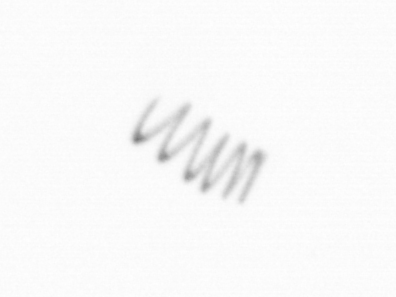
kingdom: Chromista
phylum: Ochrophyta
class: Bacillariophyceae
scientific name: Bacillariophyceae
